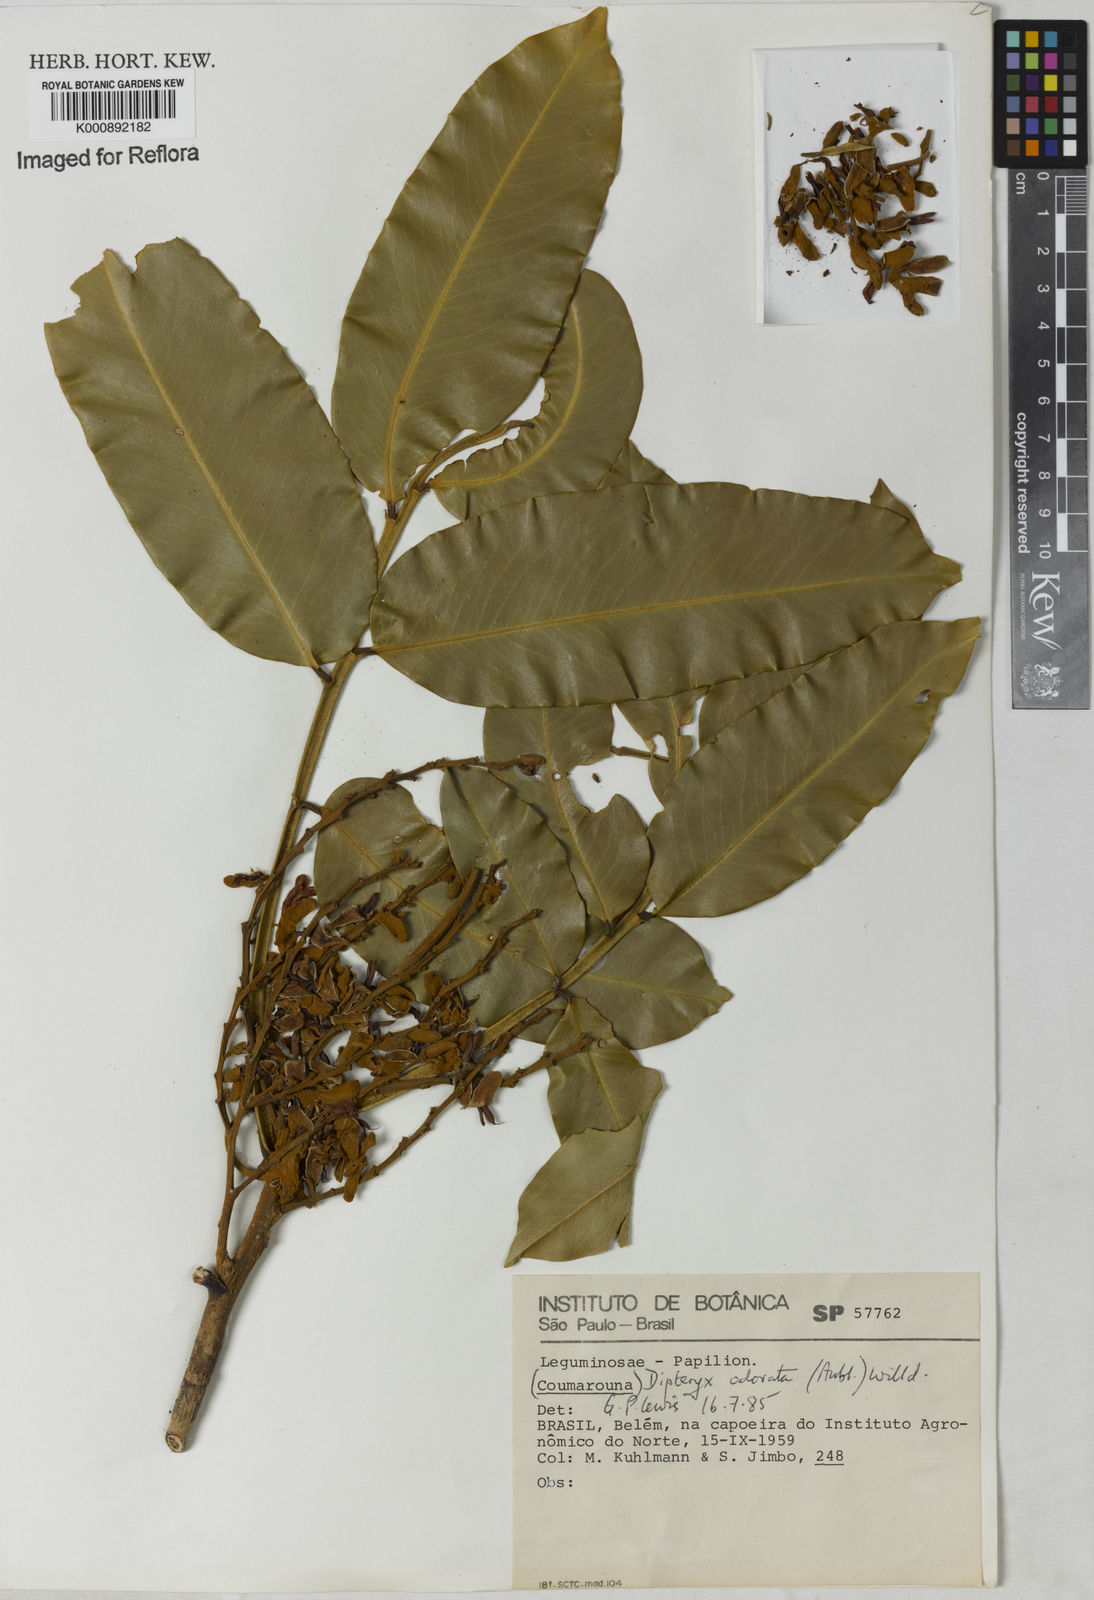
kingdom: Plantae
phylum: Tracheophyta
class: Magnoliopsida
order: Fabales
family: Fabaceae
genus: Dipteryx
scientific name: Dipteryx
